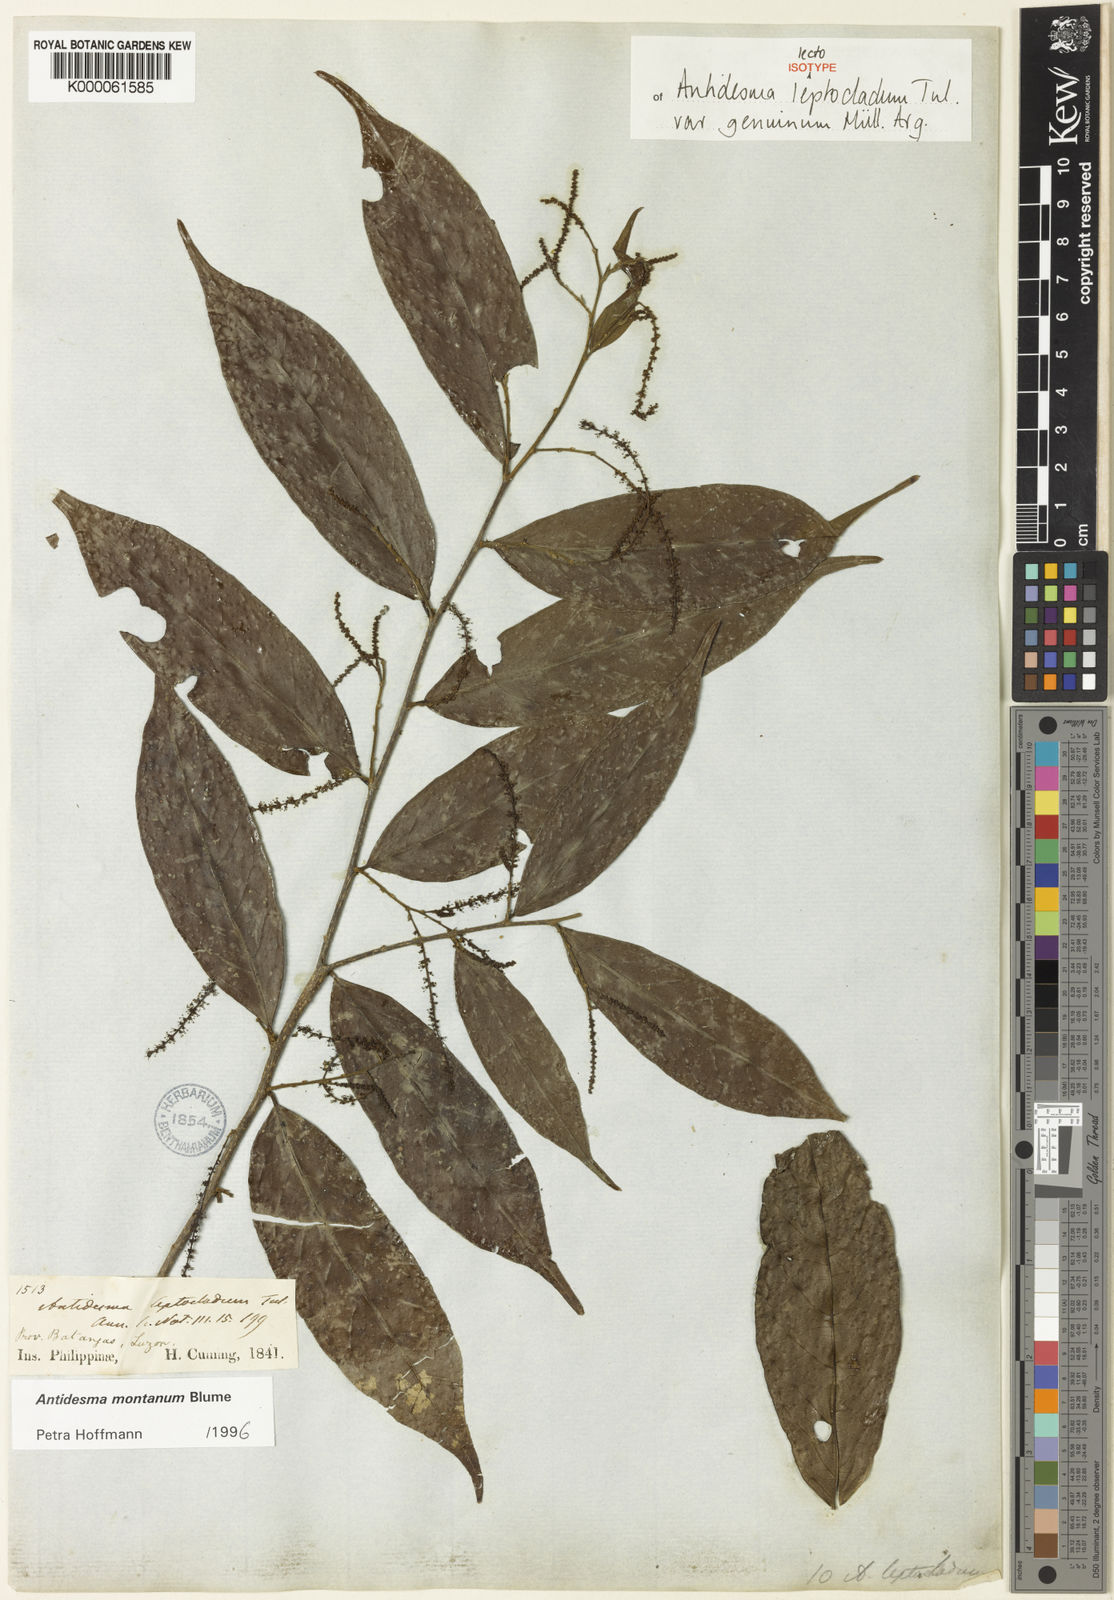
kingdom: Plantae
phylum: Tracheophyta
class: Magnoliopsida
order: Malpighiales
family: Phyllanthaceae
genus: Antidesma
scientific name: Antidesma montanum
